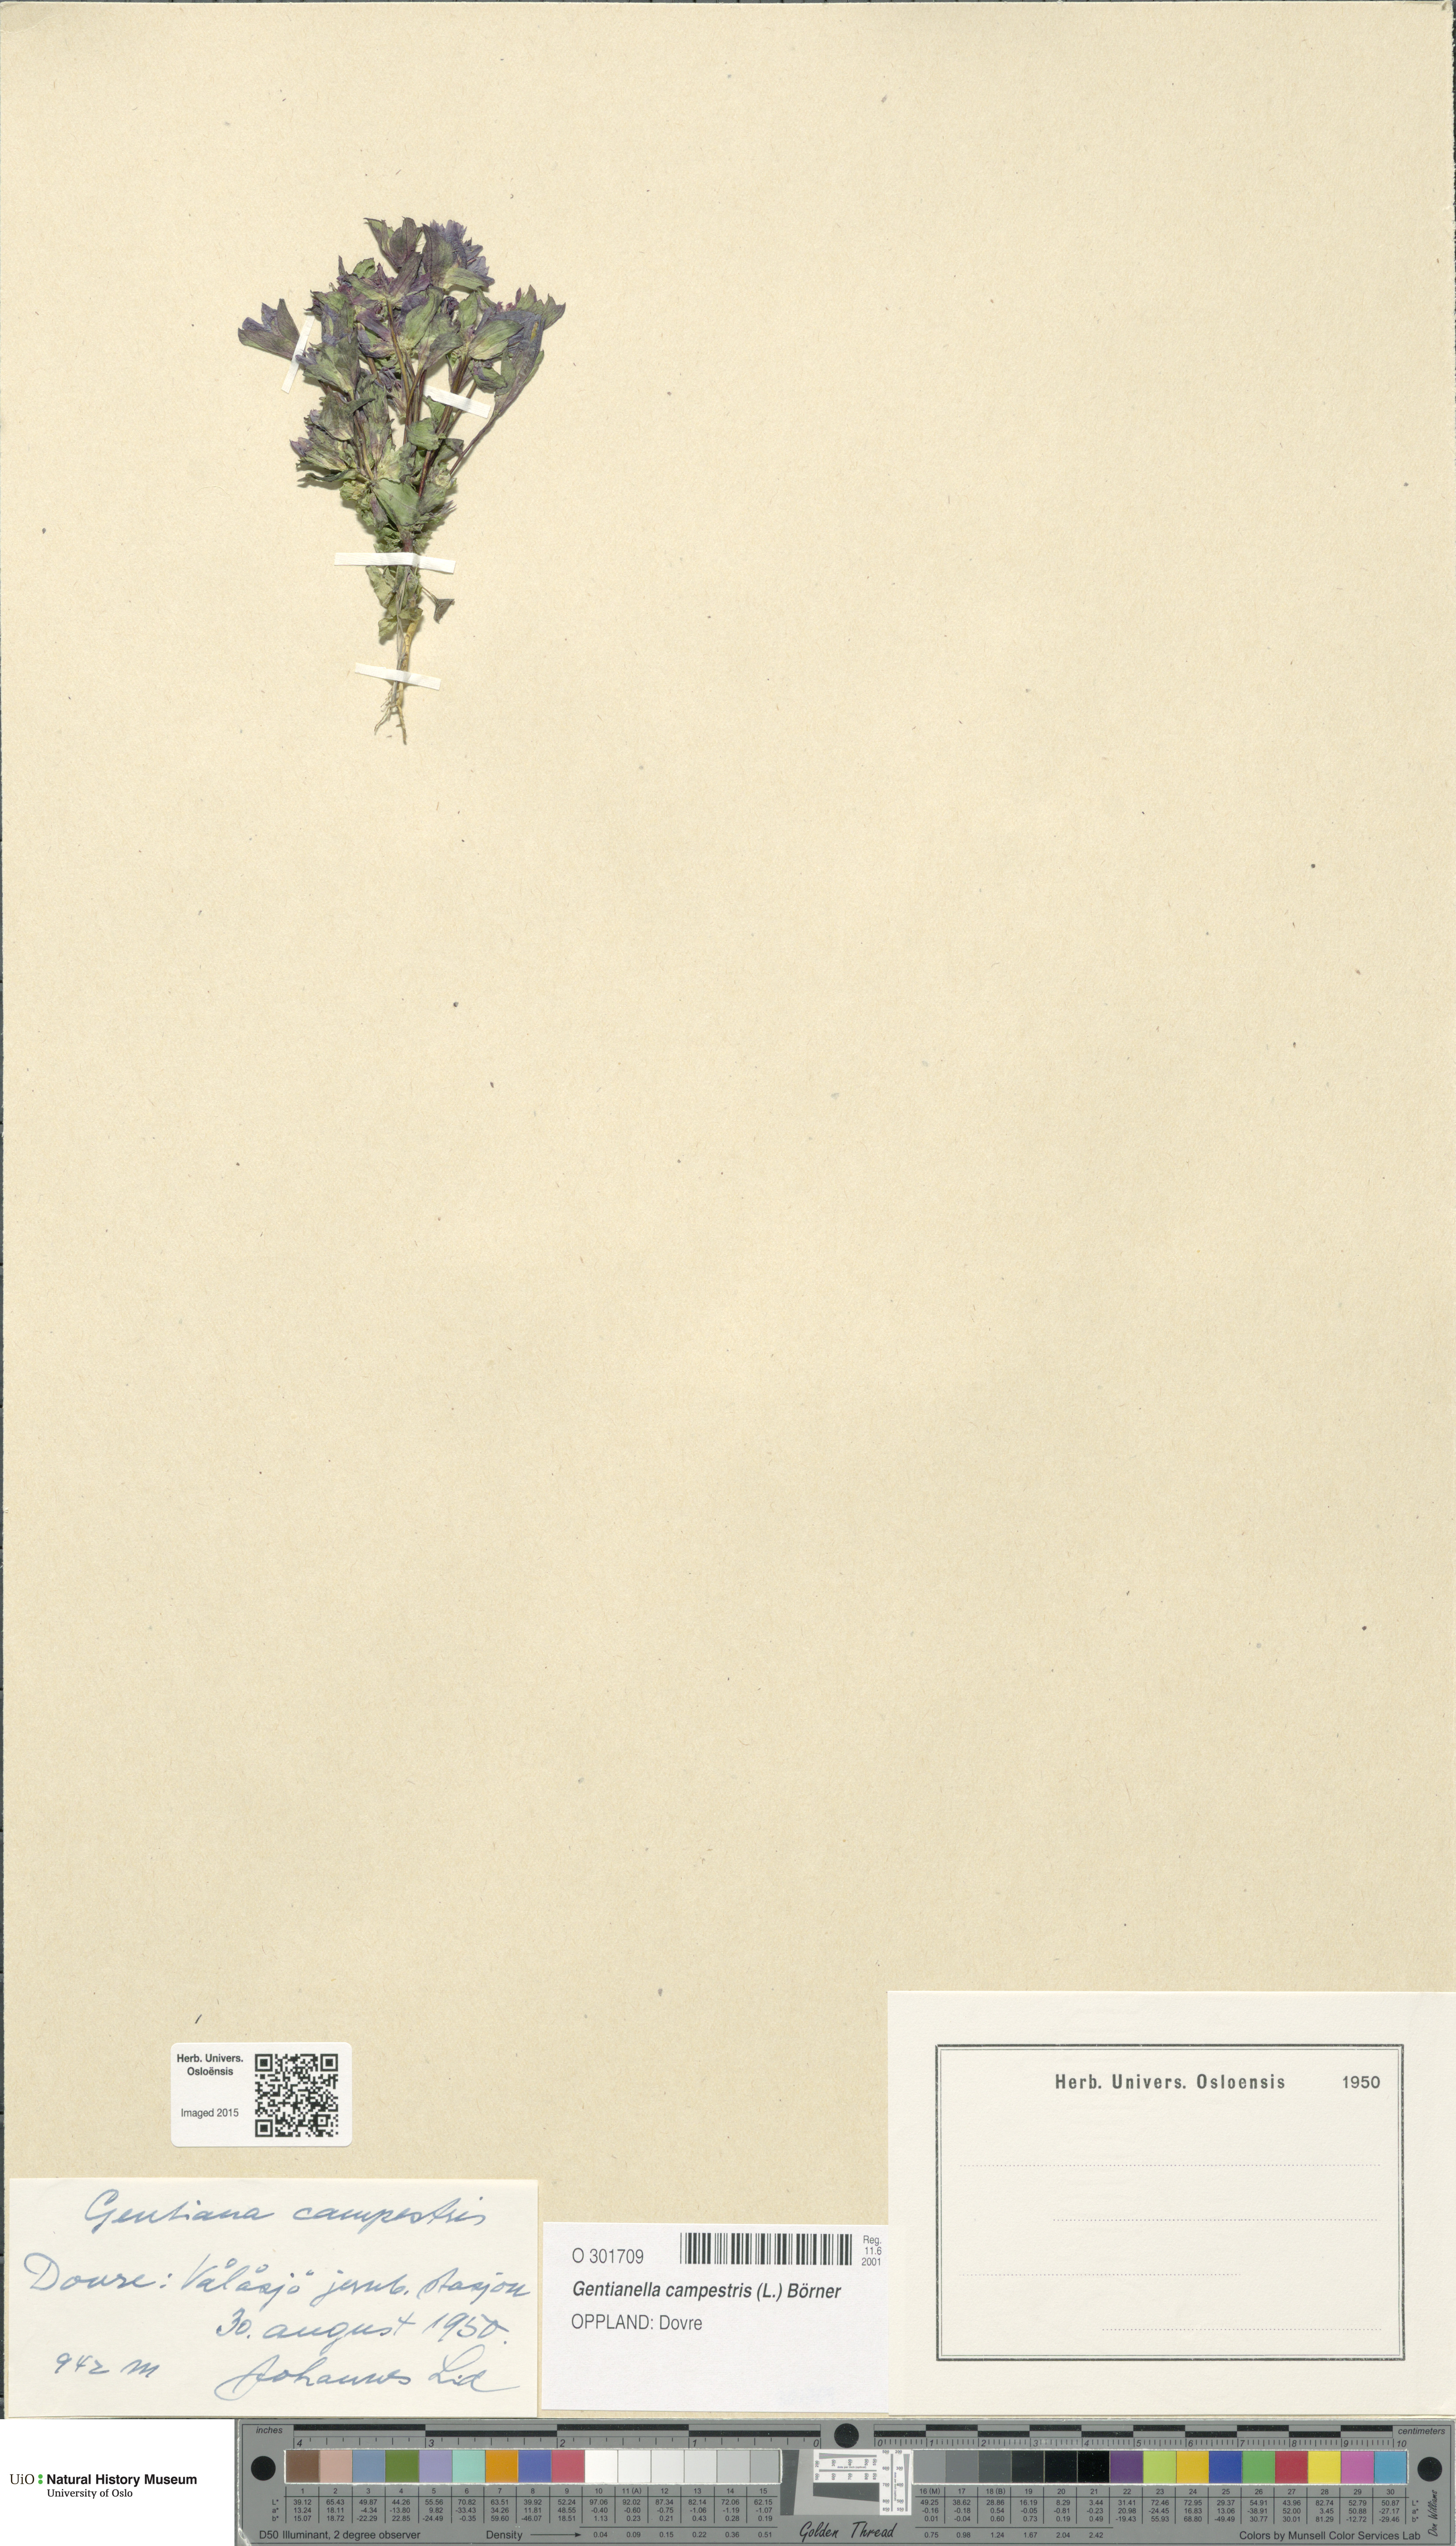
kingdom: Plantae
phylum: Tracheophyta
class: Magnoliopsida
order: Gentianales
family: Gentianaceae
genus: Gentianella
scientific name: Gentianella campestris
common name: Field gentian
